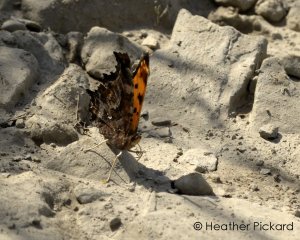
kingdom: Animalia
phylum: Arthropoda
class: Insecta
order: Lepidoptera
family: Nymphalidae
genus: Polygonia
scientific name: Polygonia comma
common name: Eastern Comma
